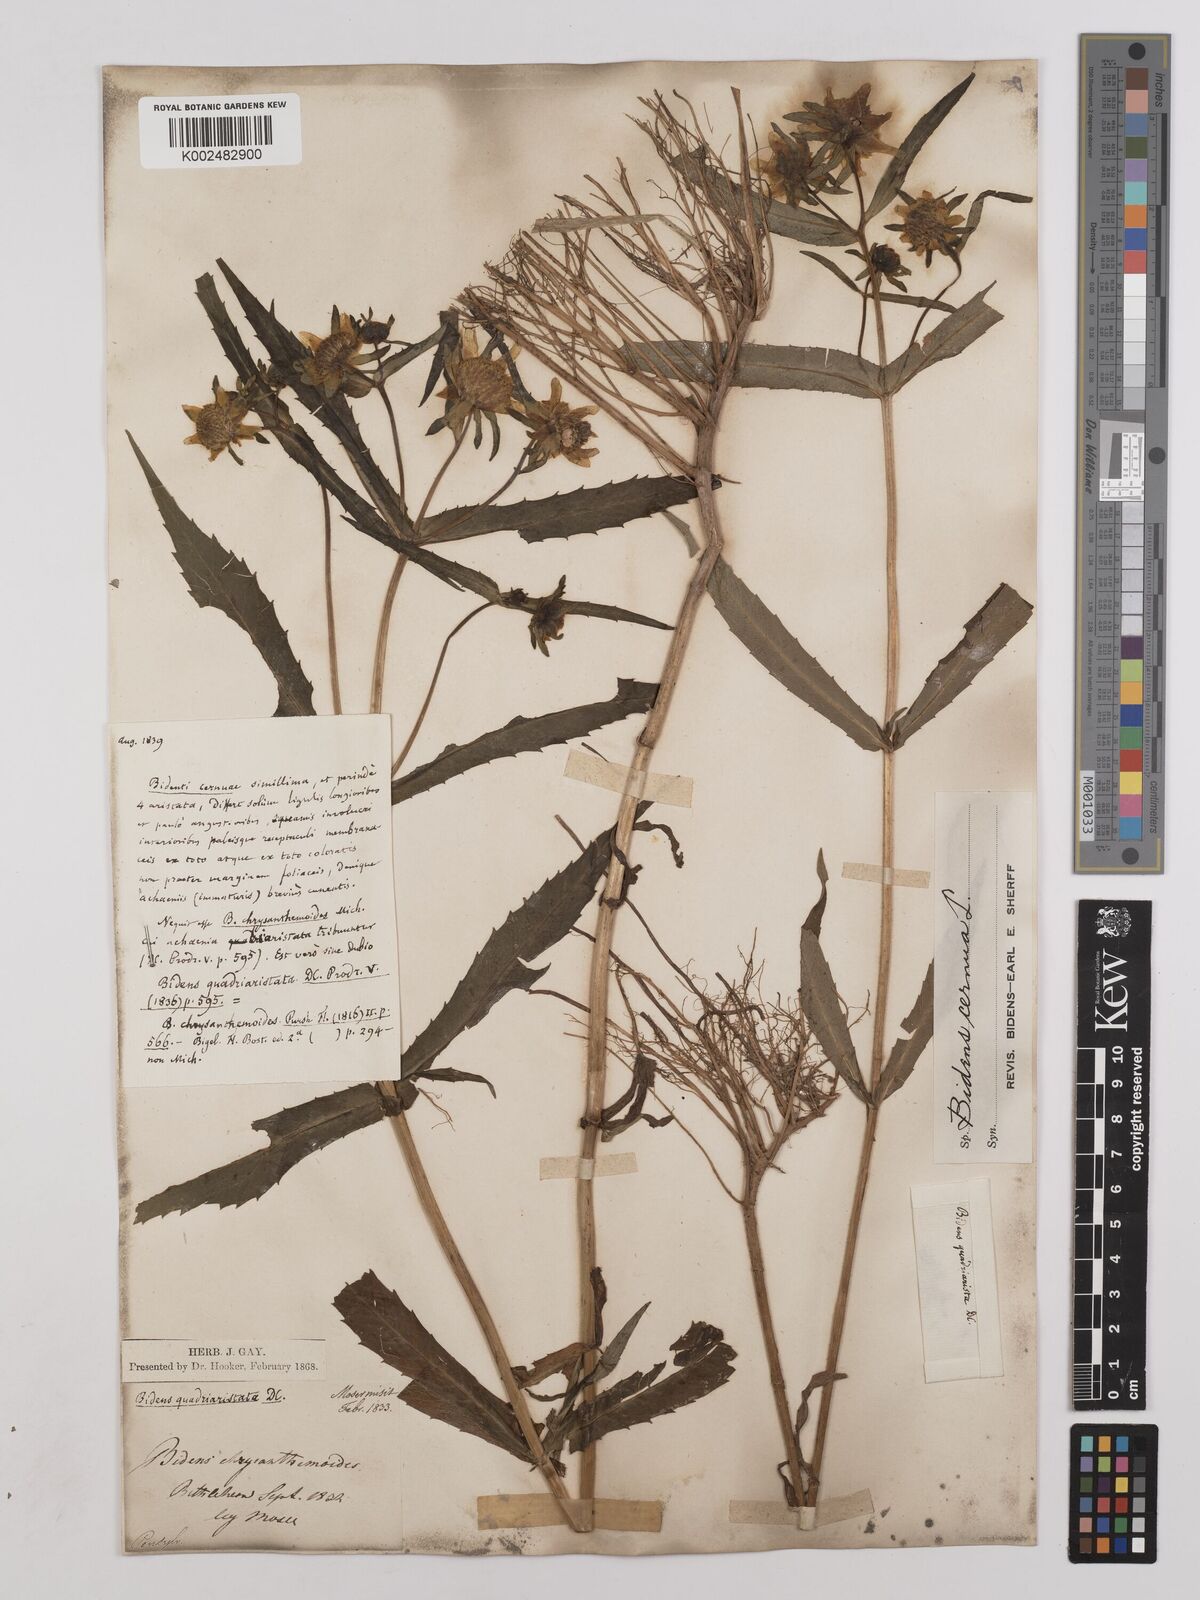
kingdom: Plantae
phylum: Tracheophyta
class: Magnoliopsida
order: Asterales
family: Asteraceae
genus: Bidens
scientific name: Bidens
